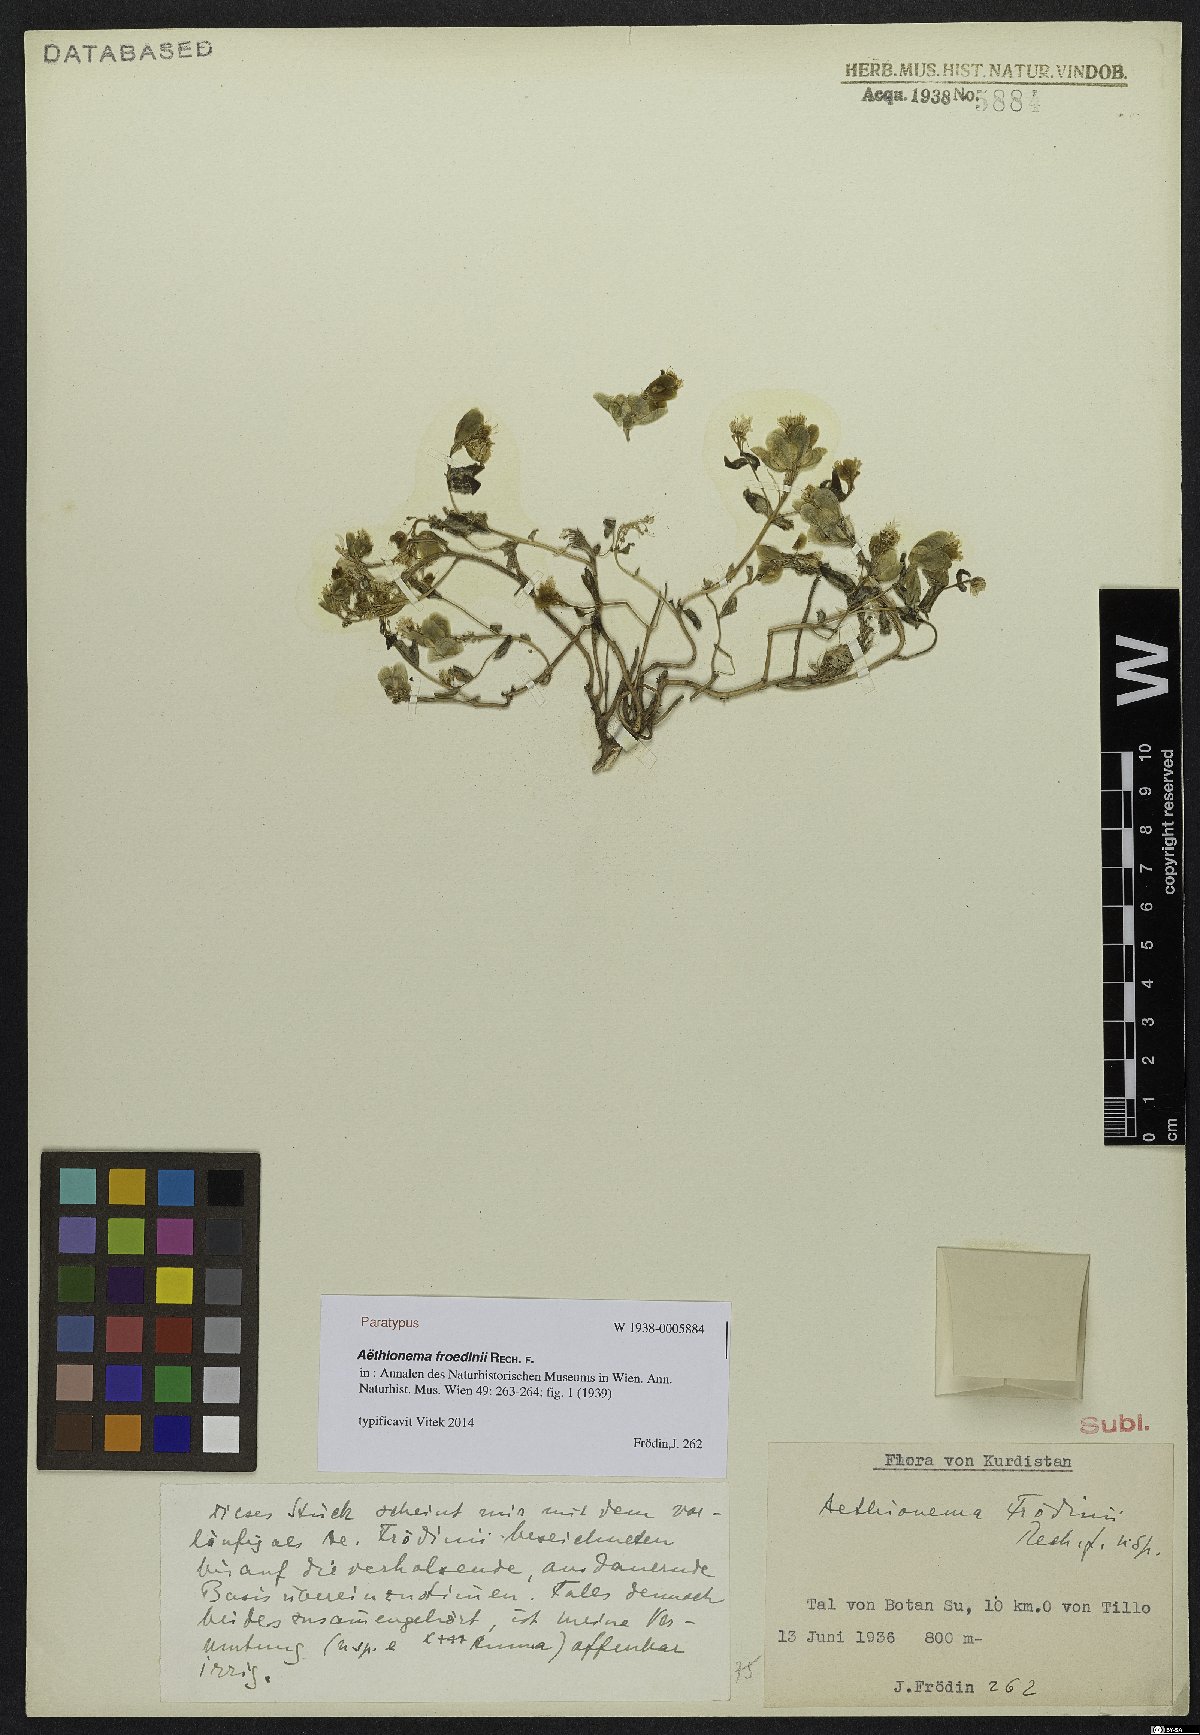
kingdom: Plantae
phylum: Tracheophyta
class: Magnoliopsida
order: Brassicales
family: Brassicaceae
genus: Aethionema
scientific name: Aethionema froedinii
